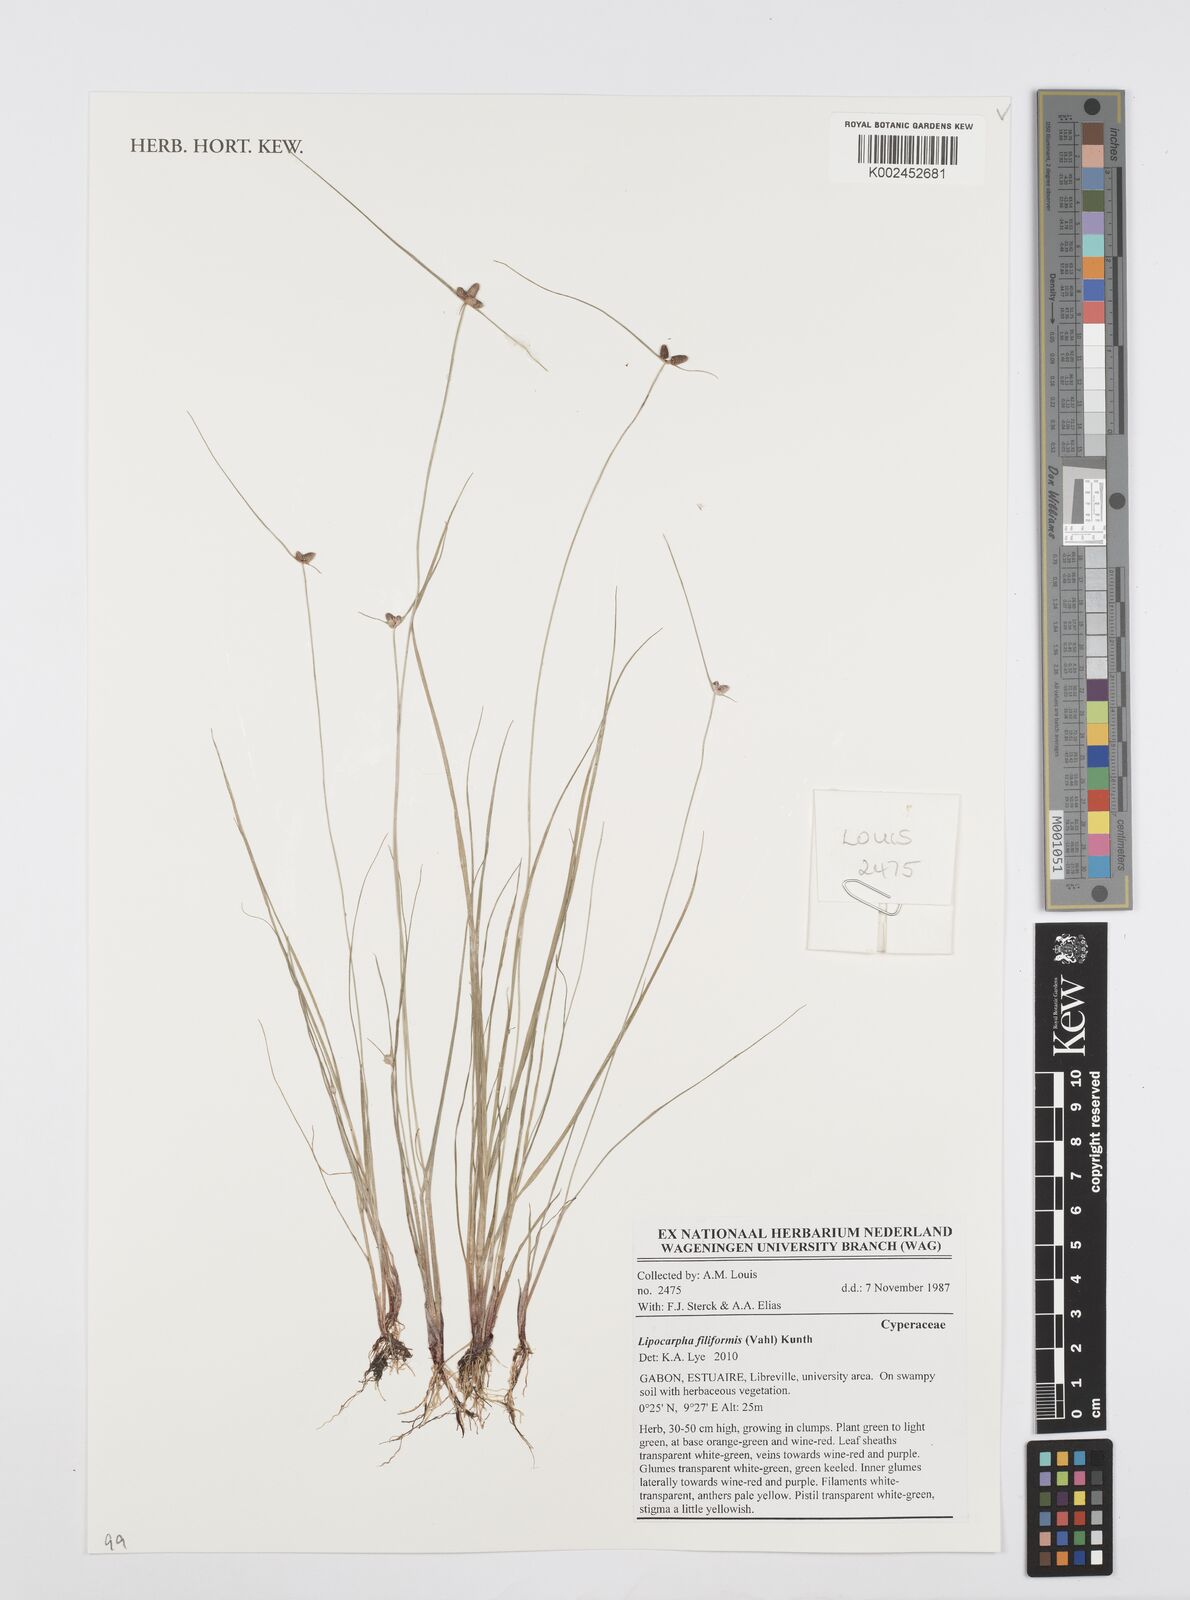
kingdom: Plantae
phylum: Tracheophyta
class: Liliopsida
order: Poales
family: Cyperaceae
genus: Cyperus
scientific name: Cyperus filiformis
